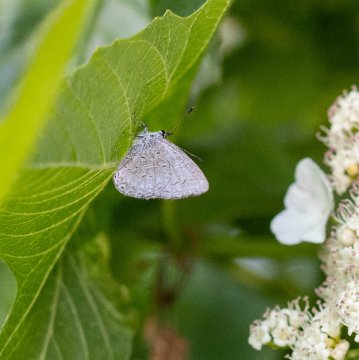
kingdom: Animalia
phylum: Arthropoda
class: Insecta
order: Lepidoptera
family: Lycaenidae
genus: Celastrina
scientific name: Celastrina lucia
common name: Northern Spring Azure
